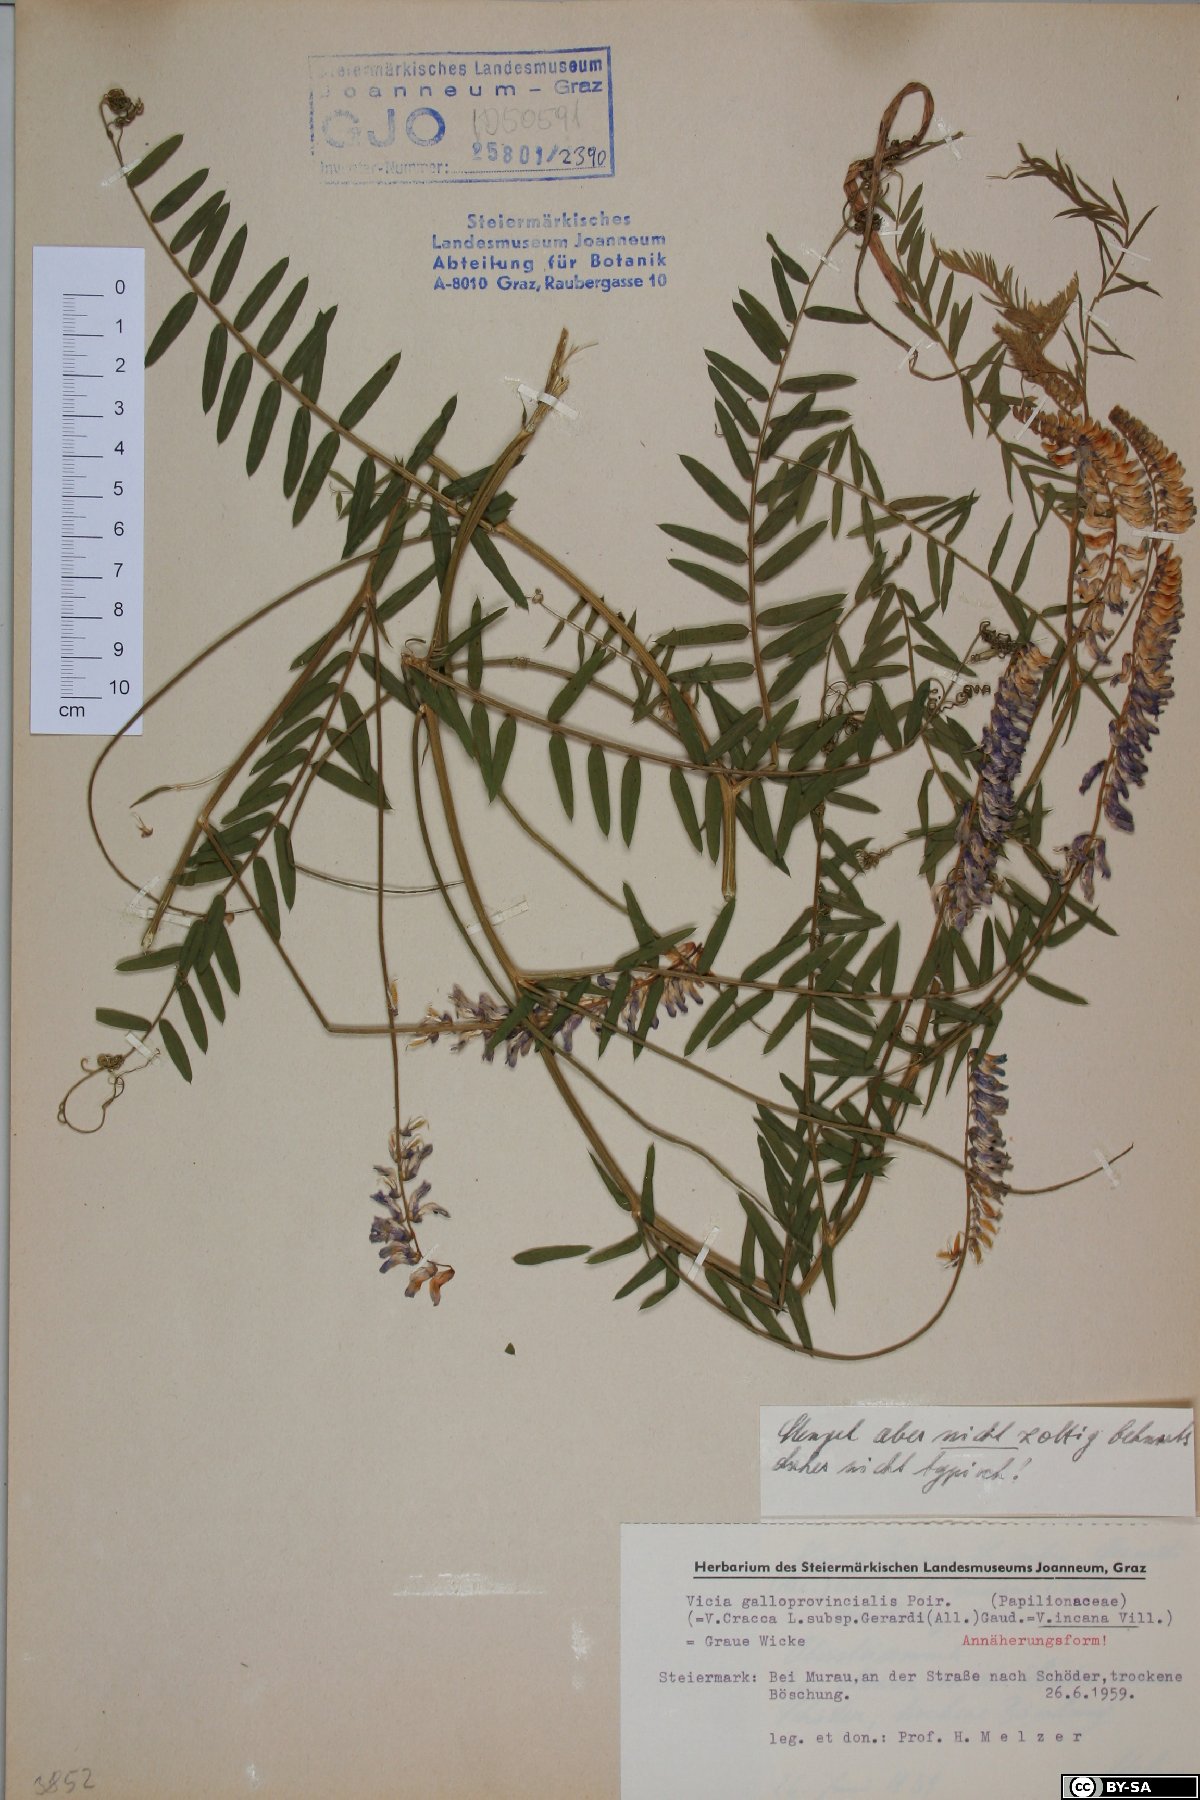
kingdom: Plantae
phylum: Tracheophyta
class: Magnoliopsida
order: Fabales
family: Fabaceae
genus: Vicia
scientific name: Vicia incana
